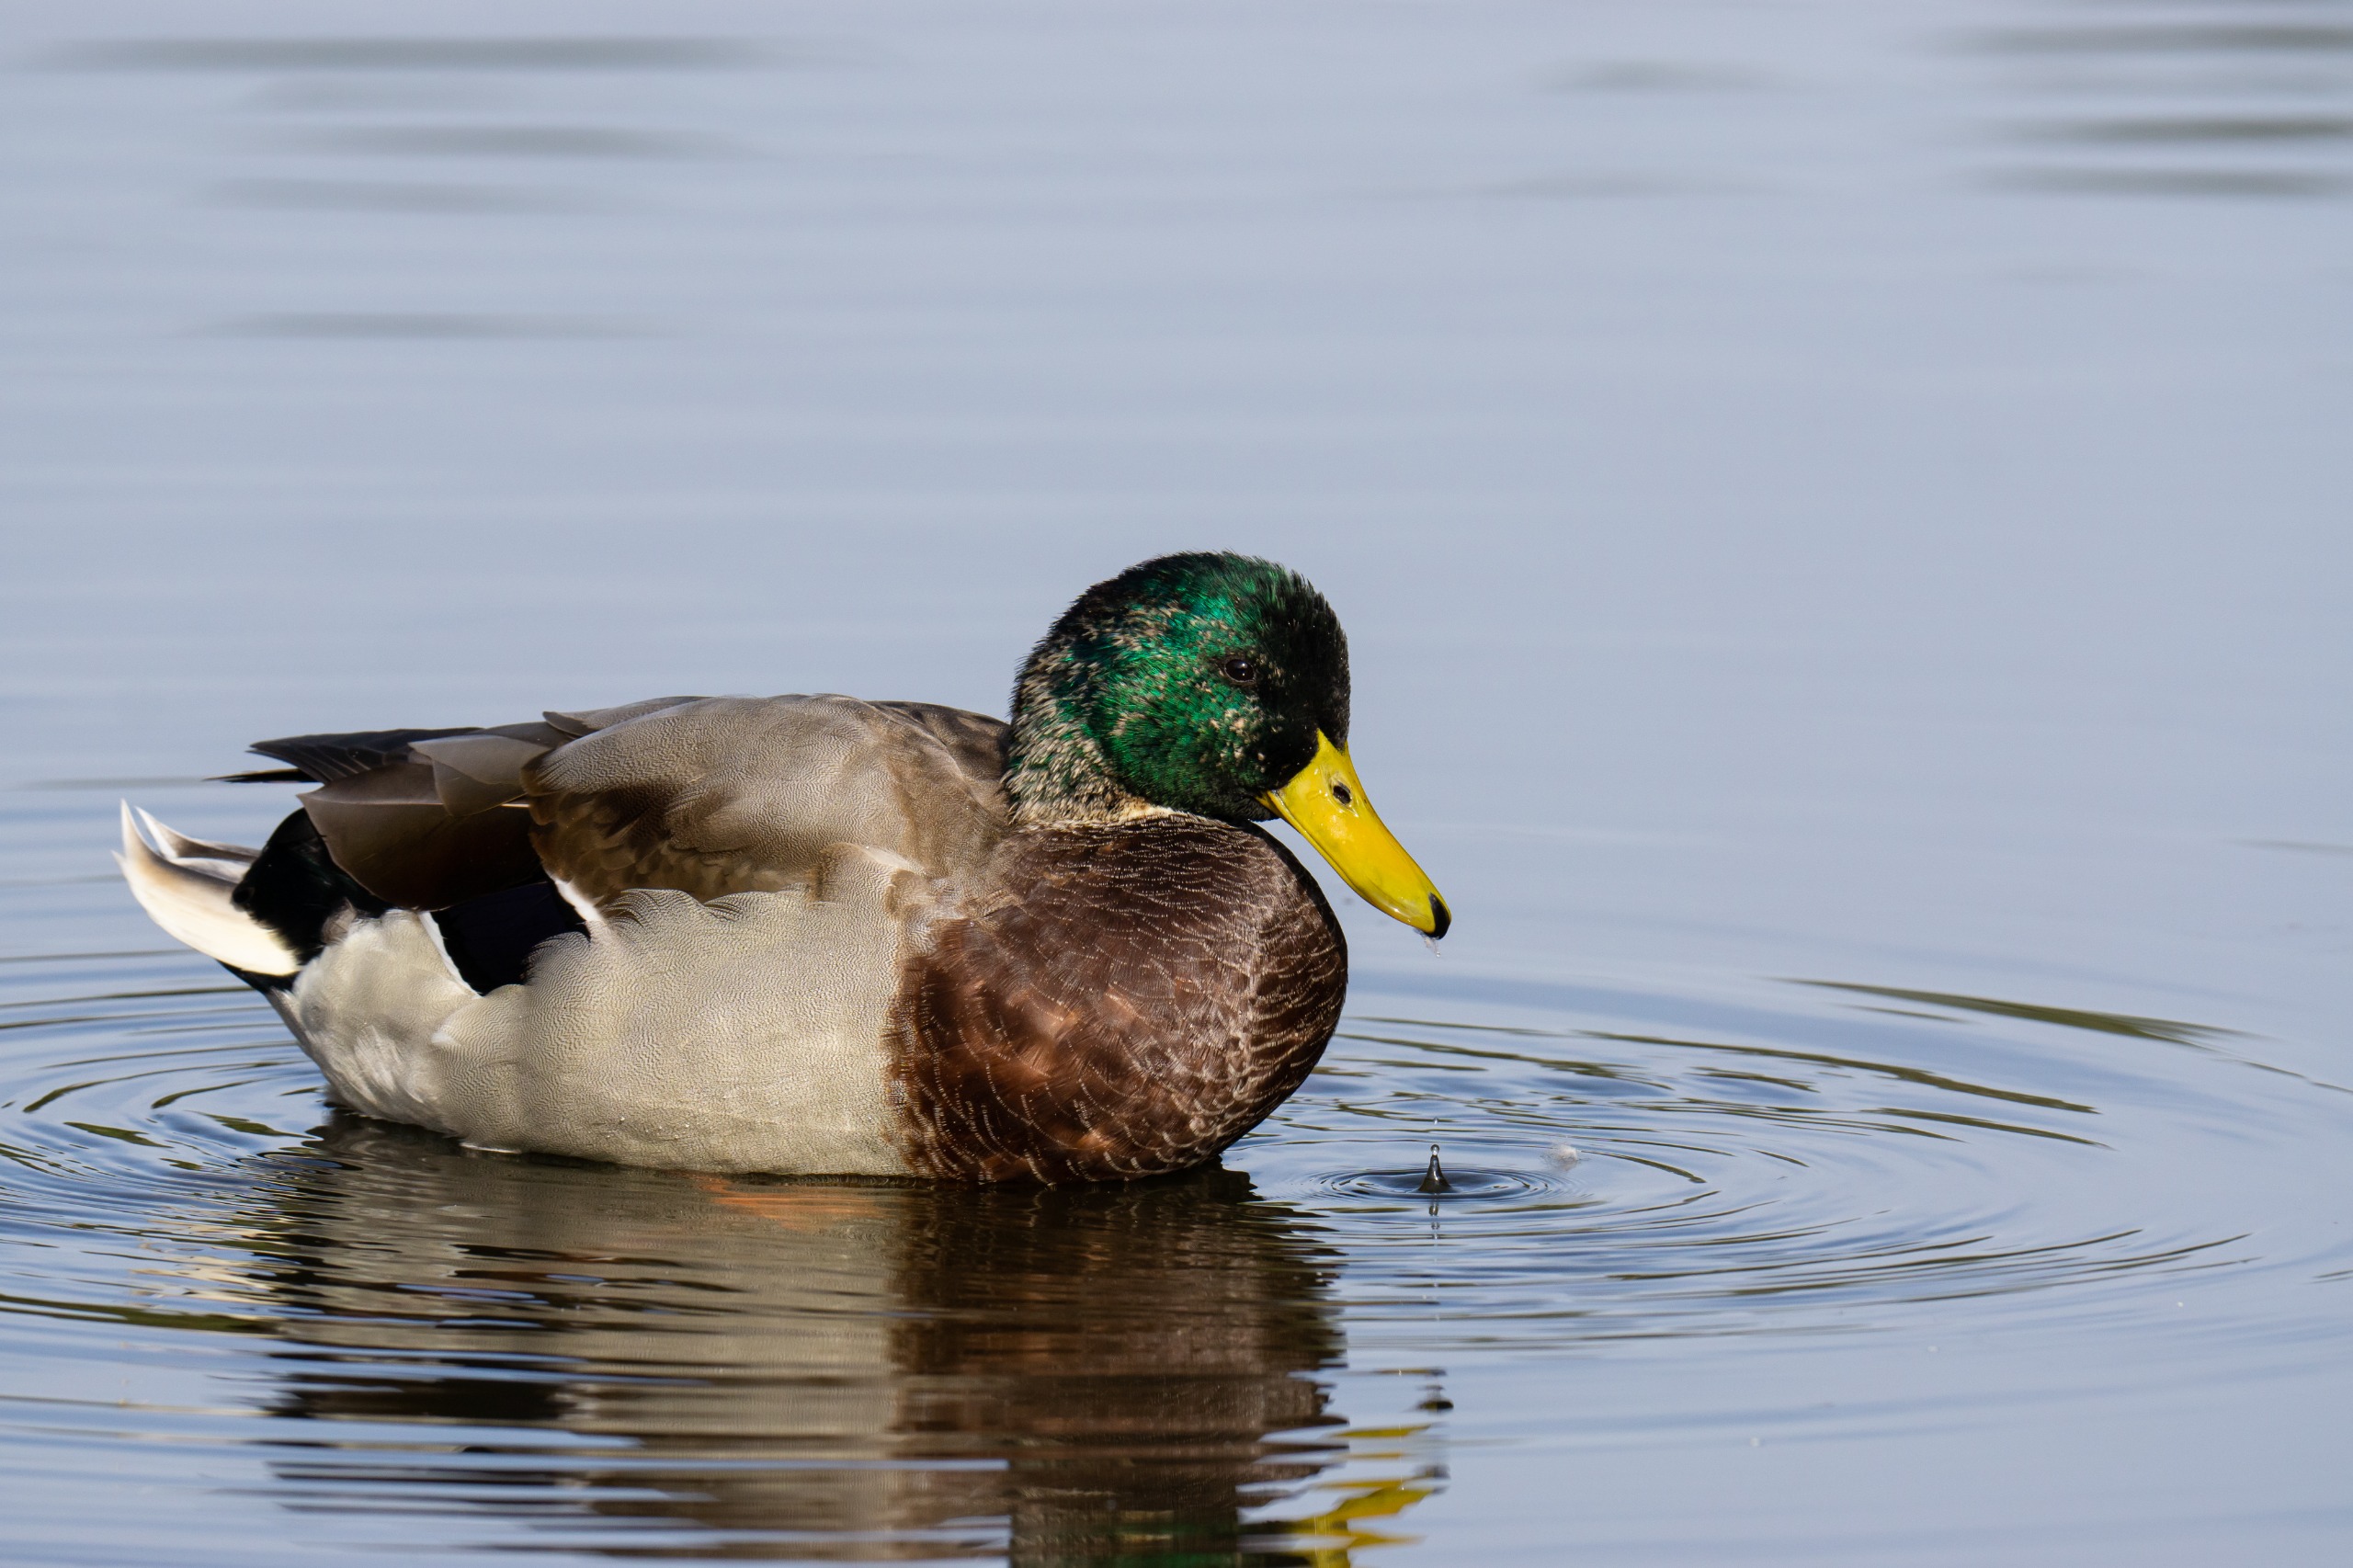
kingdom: Animalia
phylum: Chordata
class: Aves
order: Anseriformes
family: Anatidae
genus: Anas
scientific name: Anas platyrhynchos
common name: Gråand
